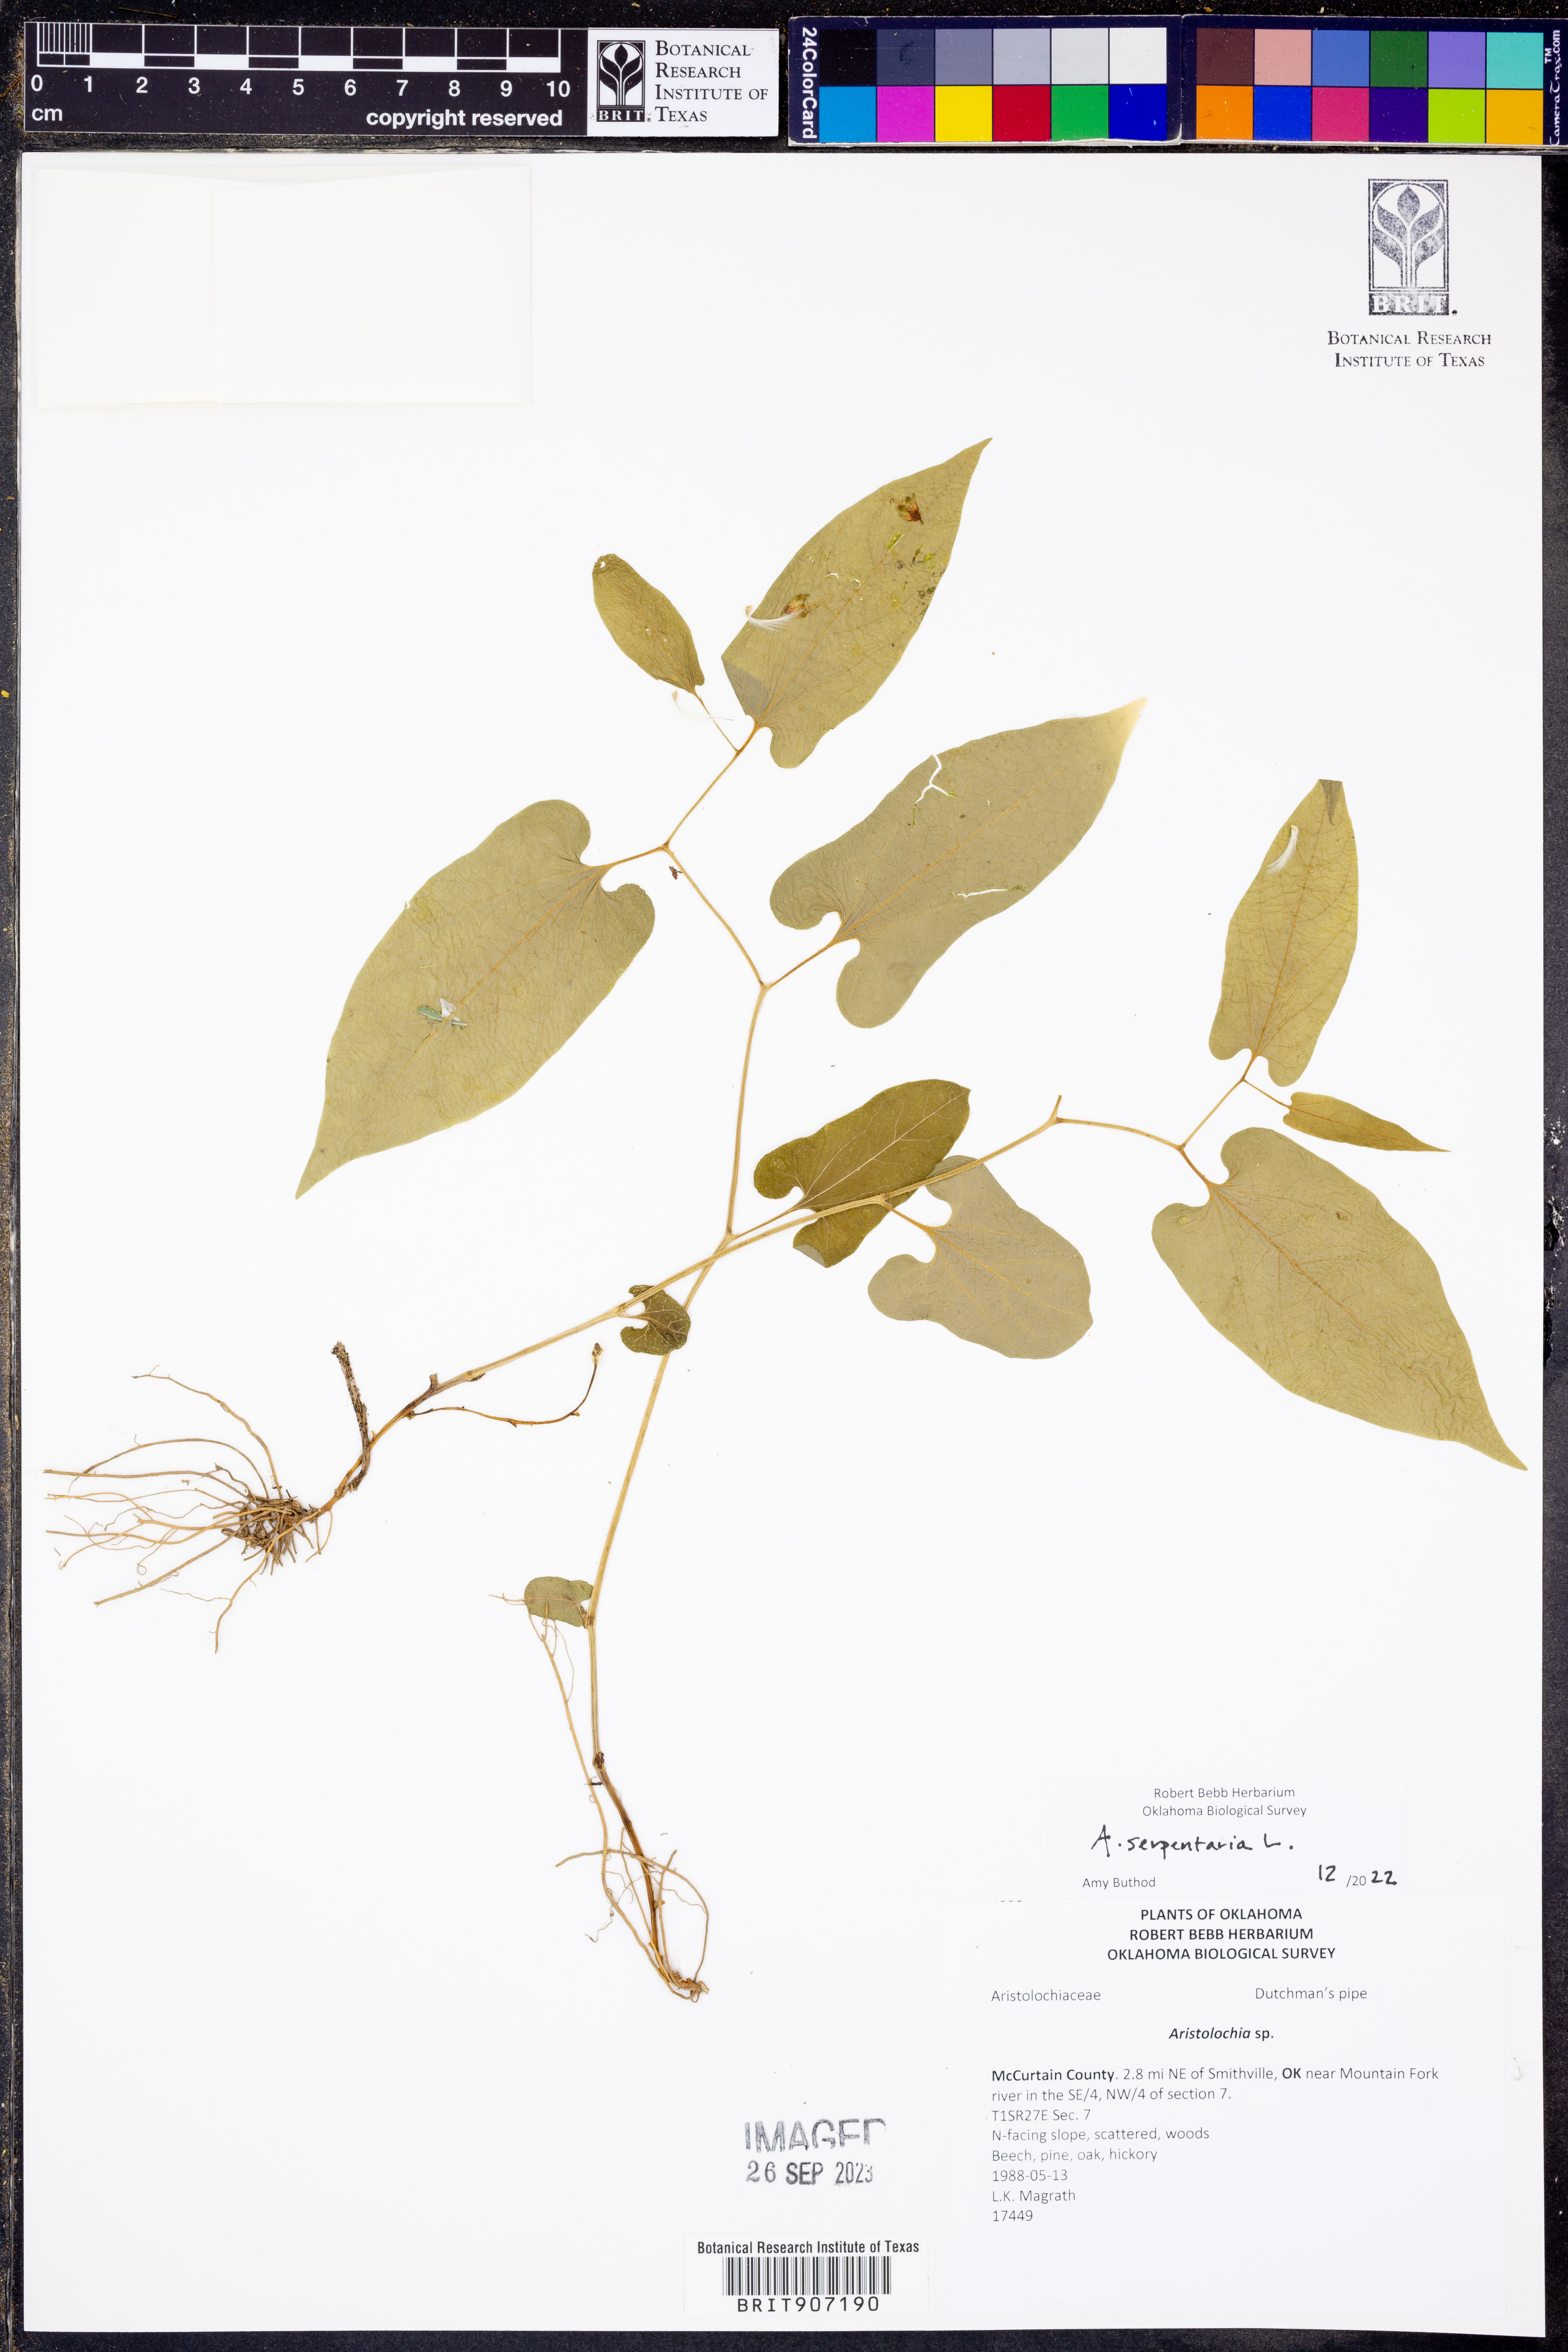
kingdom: Plantae
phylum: Tracheophyta
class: Magnoliopsida
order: Piperales
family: Aristolochiaceae
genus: Endodeca
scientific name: Endodeca serpentaria
